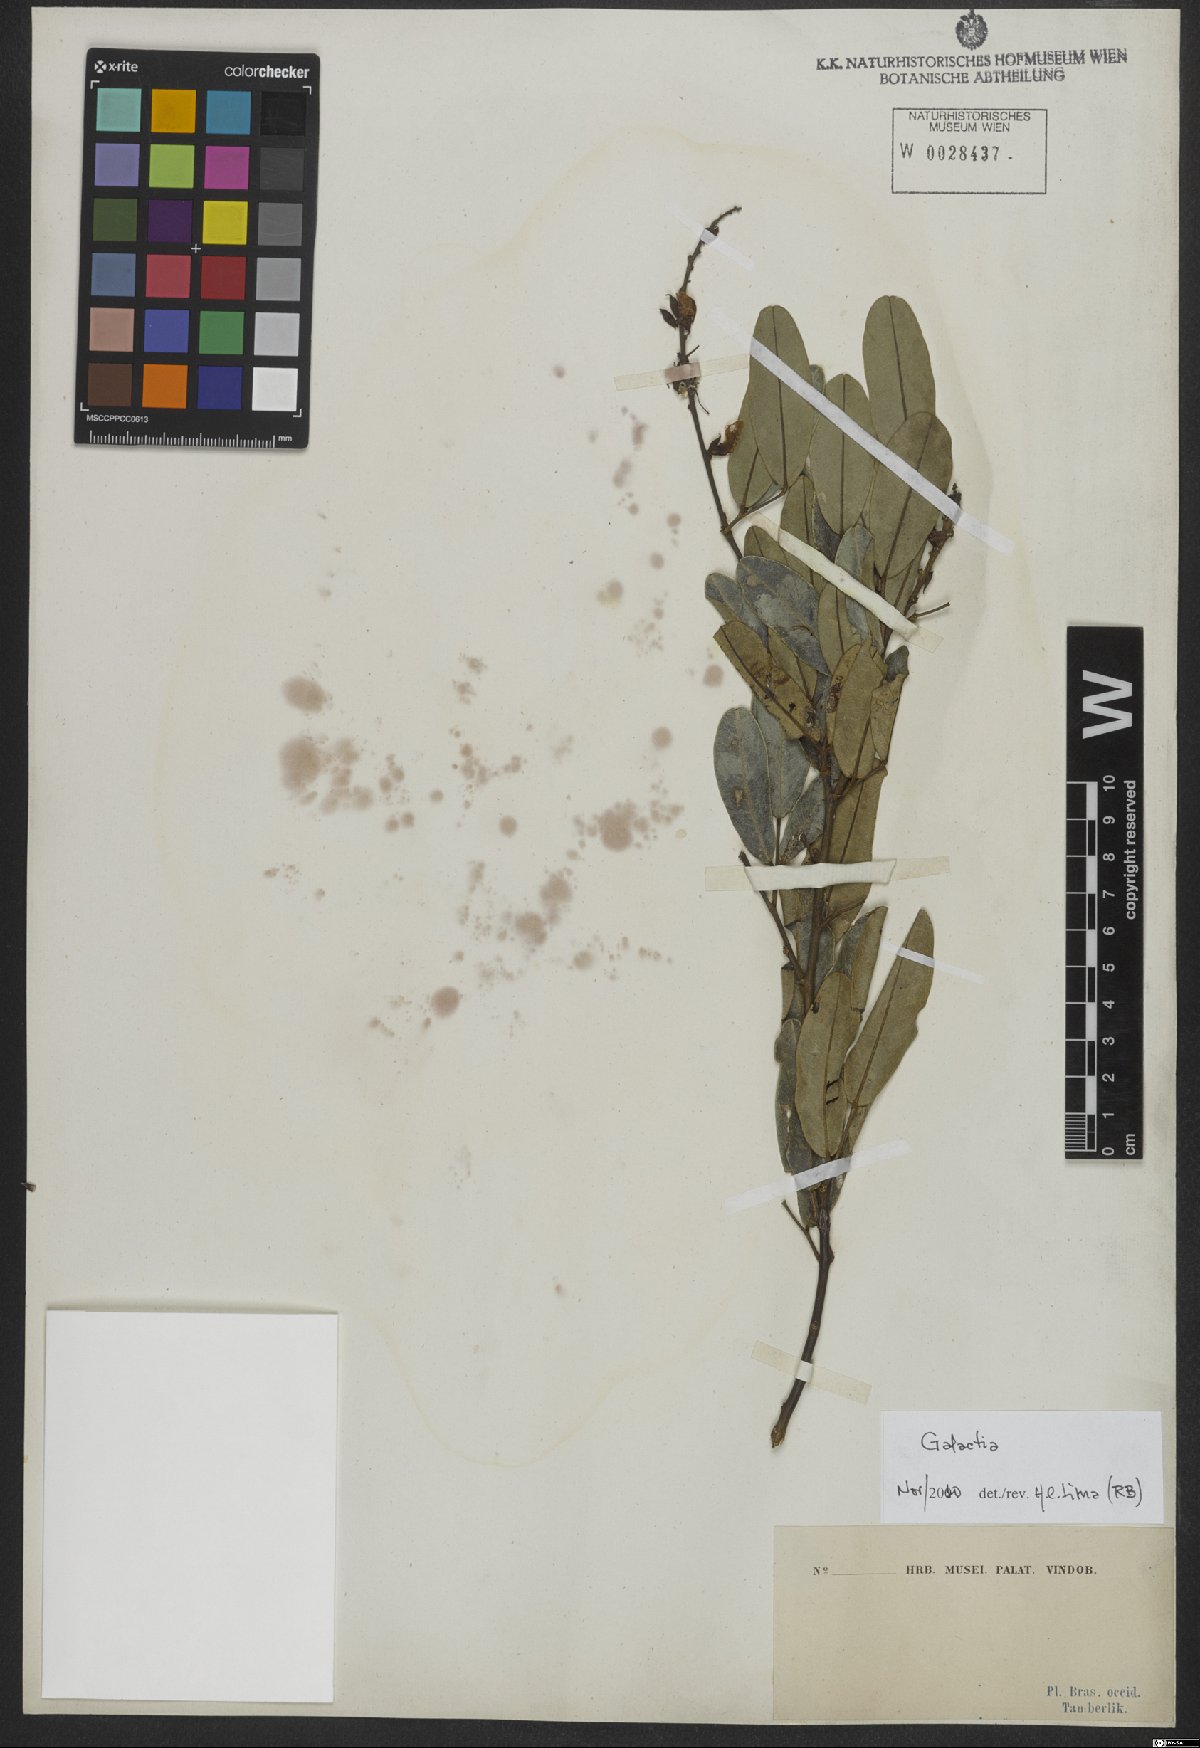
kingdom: Plantae
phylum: Tracheophyta
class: Magnoliopsida
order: Fabales
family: Fabaceae
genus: Galactia
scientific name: Galactia striata
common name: Florida hammock milkpea
